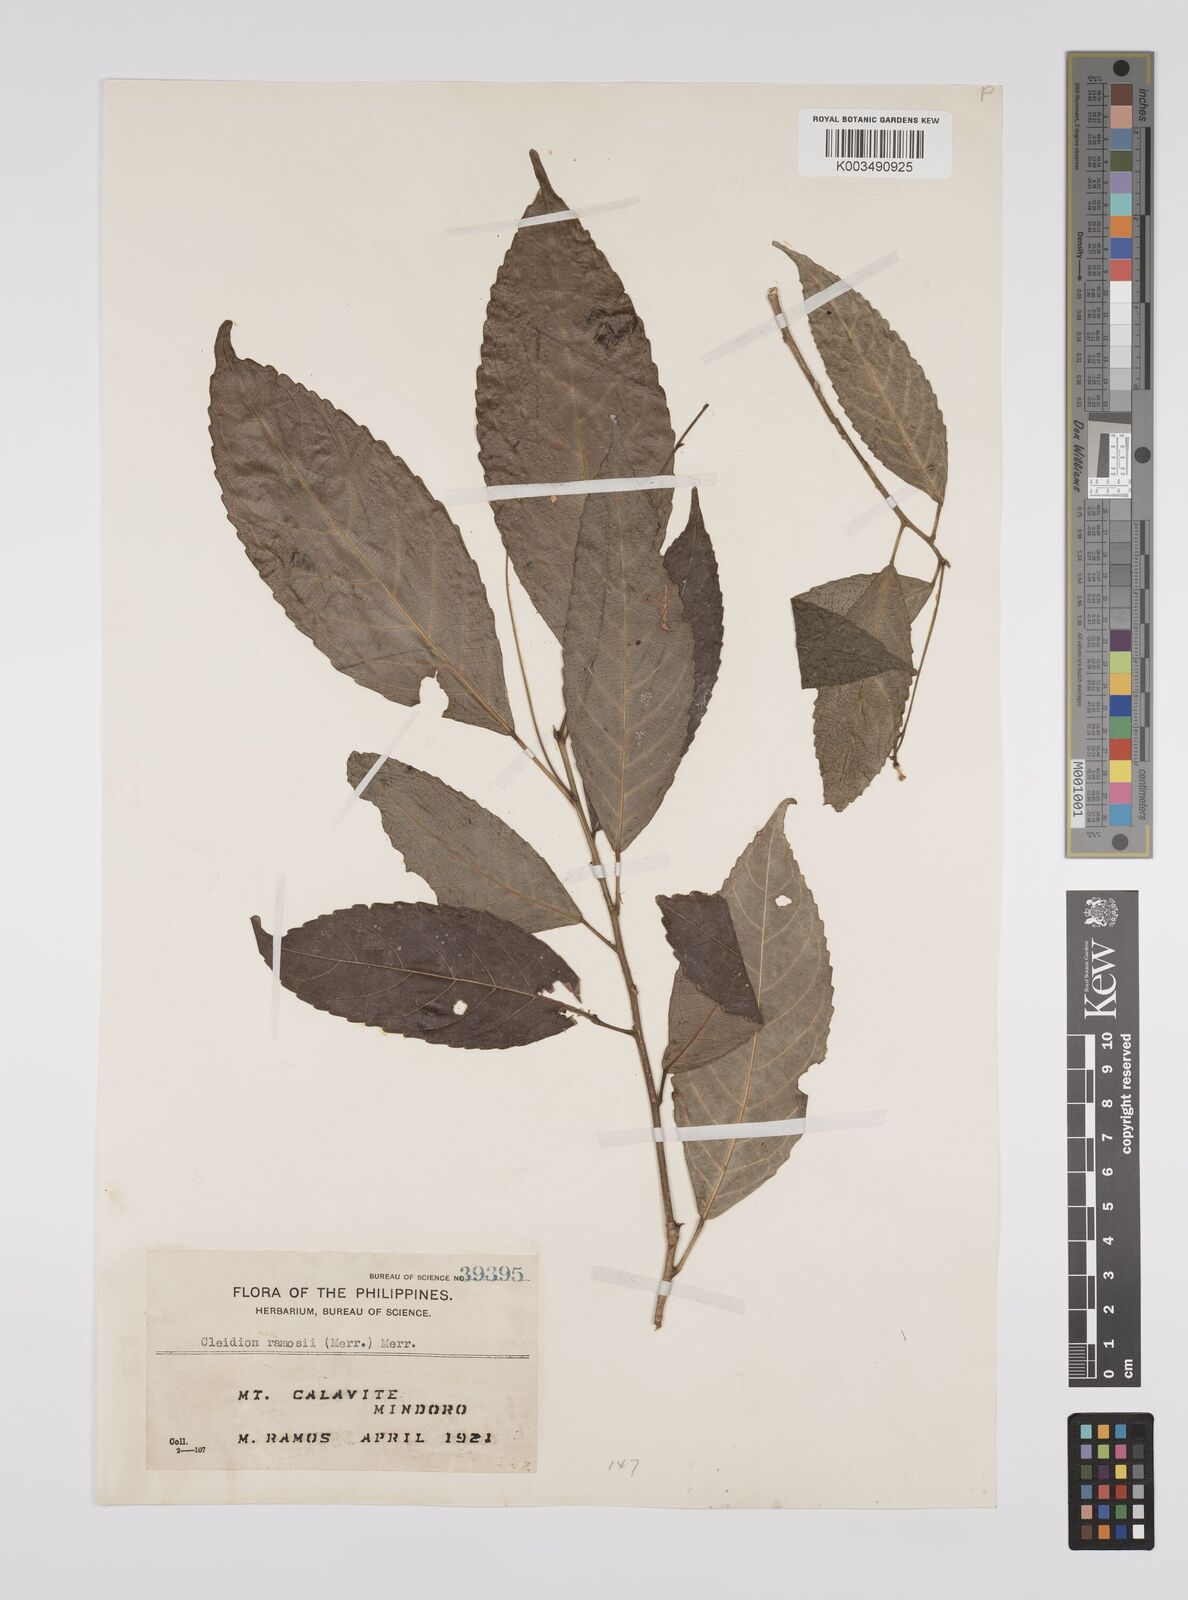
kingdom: Plantae
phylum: Tracheophyta
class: Magnoliopsida
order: Malpighiales
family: Euphorbiaceae
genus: Cleidion
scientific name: Cleidion ramosii
